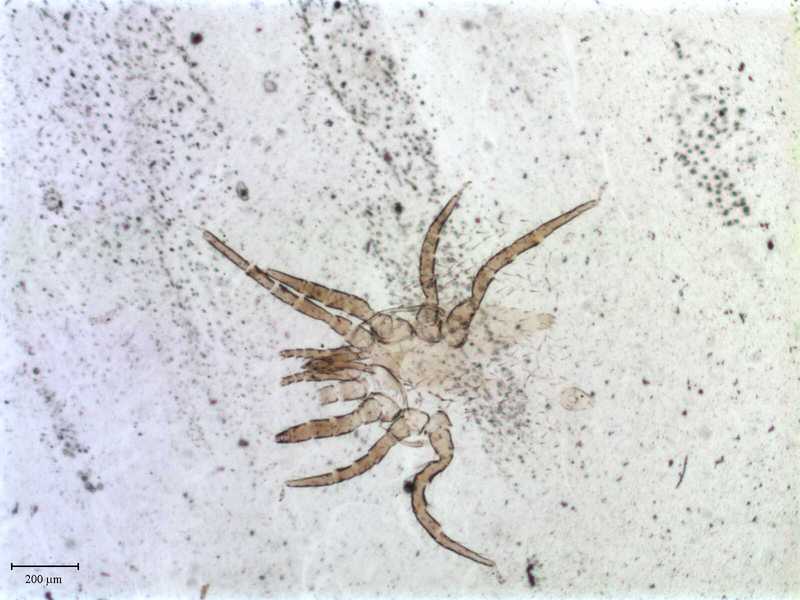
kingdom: Animalia
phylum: Arthropoda
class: Arachnida
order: Mesostigmata
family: Macronyssidae
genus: Chiroptonyssus
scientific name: Chiroptonyssus venezolanus
